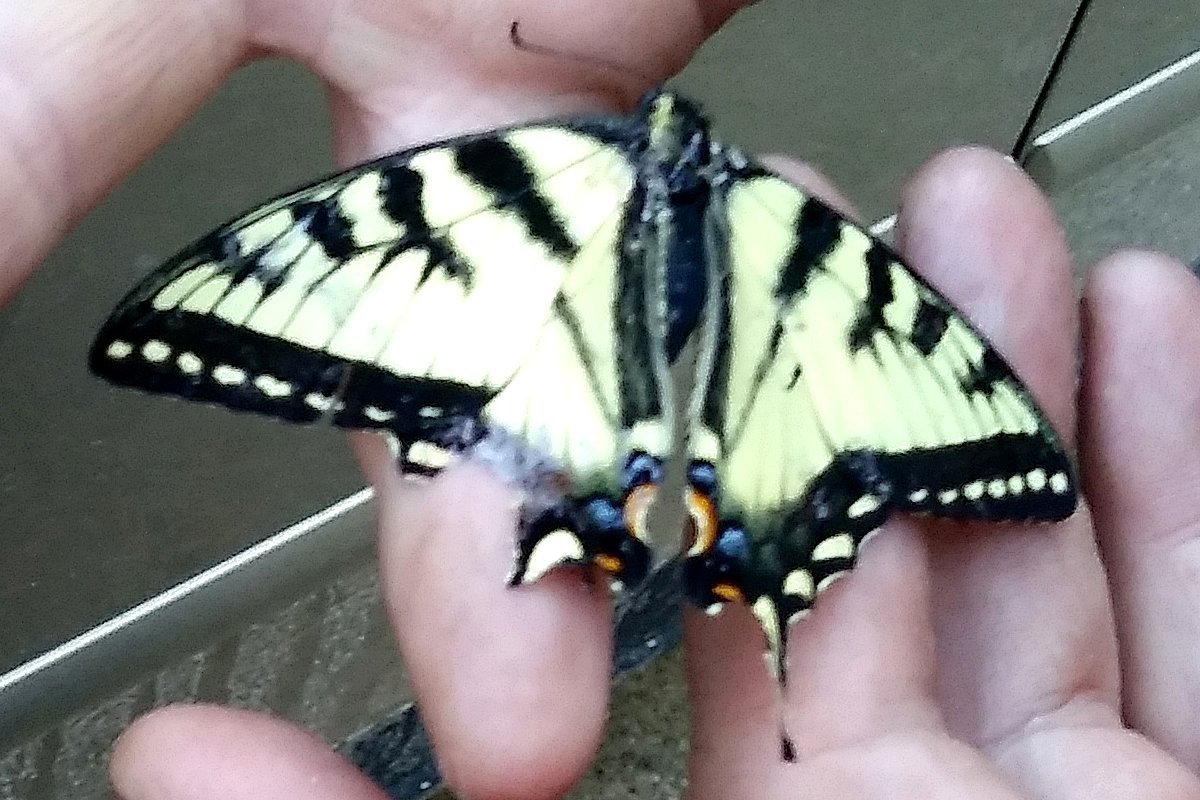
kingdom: Animalia
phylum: Arthropoda
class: Insecta
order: Lepidoptera
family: Papilionidae
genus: Pterourus
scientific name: Pterourus canadensis
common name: Canadian Tiger Swallowtail
